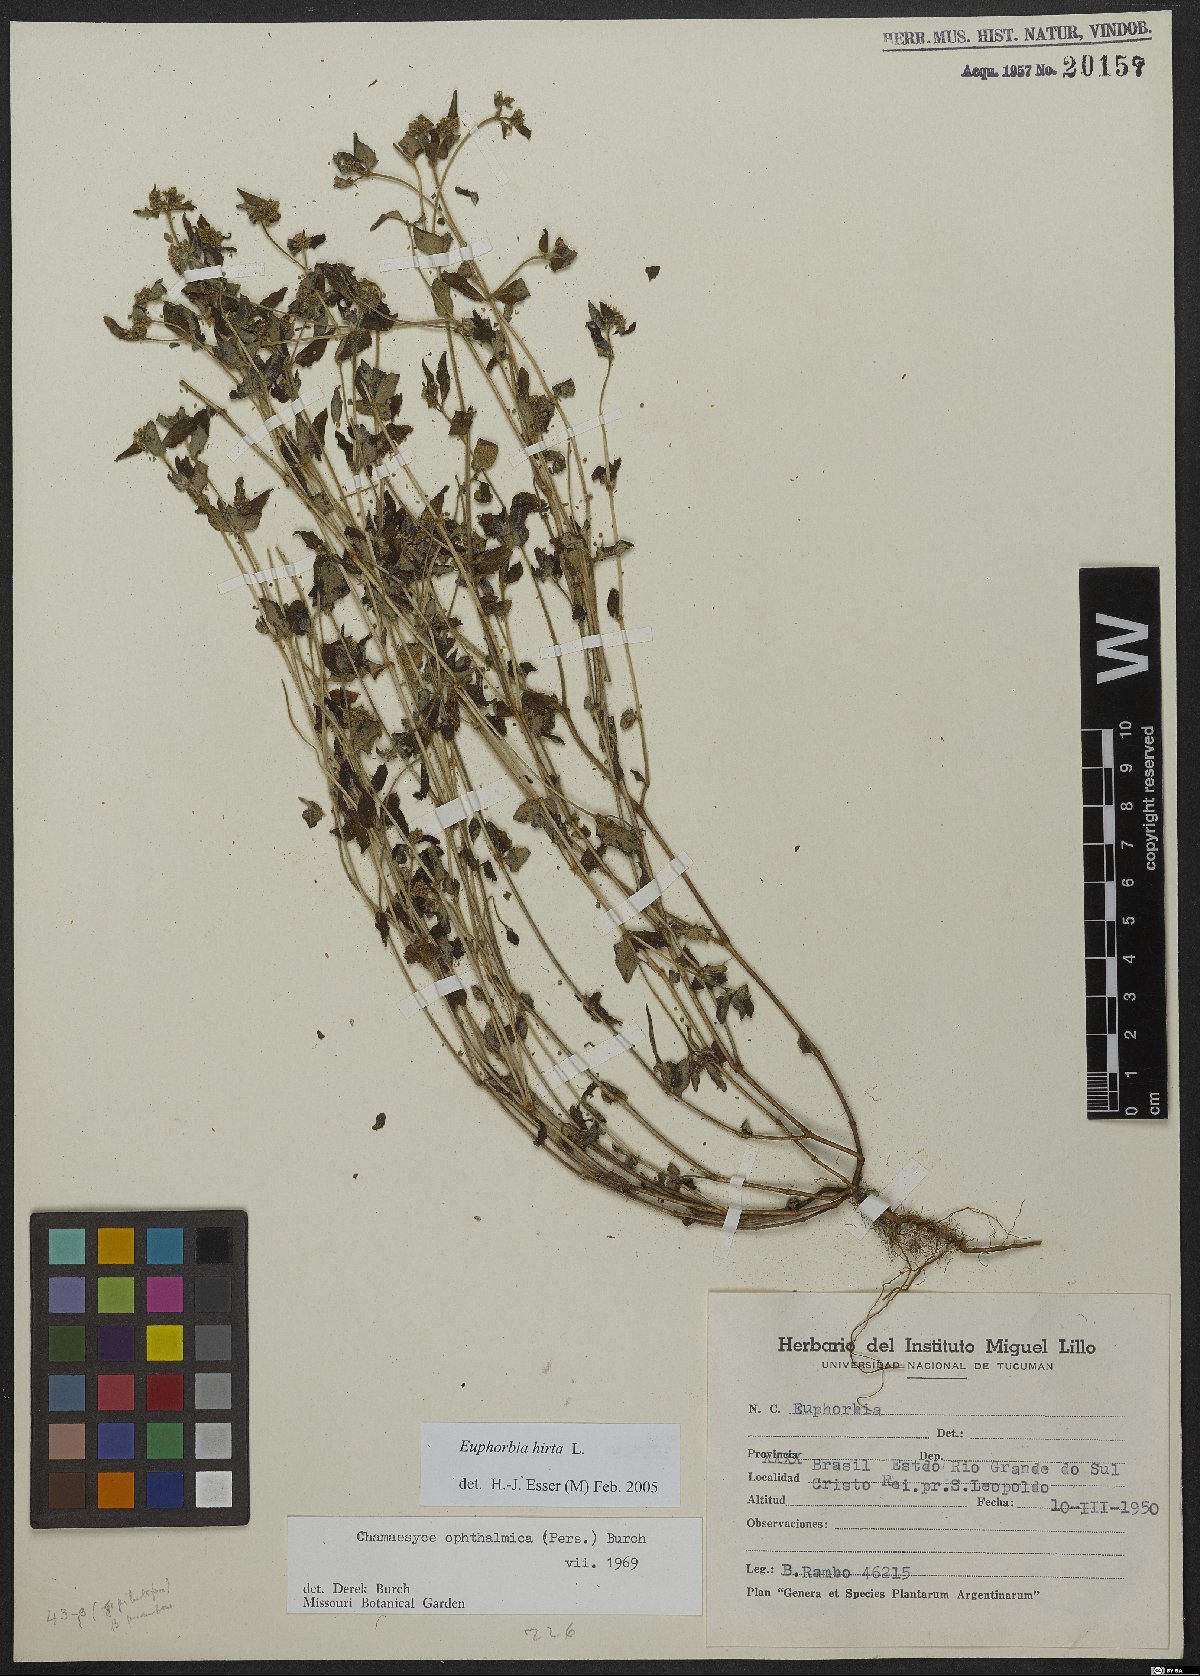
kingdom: Plantae
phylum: Tracheophyta
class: Magnoliopsida
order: Malpighiales
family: Euphorbiaceae
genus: Euphorbia
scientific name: Euphorbia hirta
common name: Pillpod sandmat
